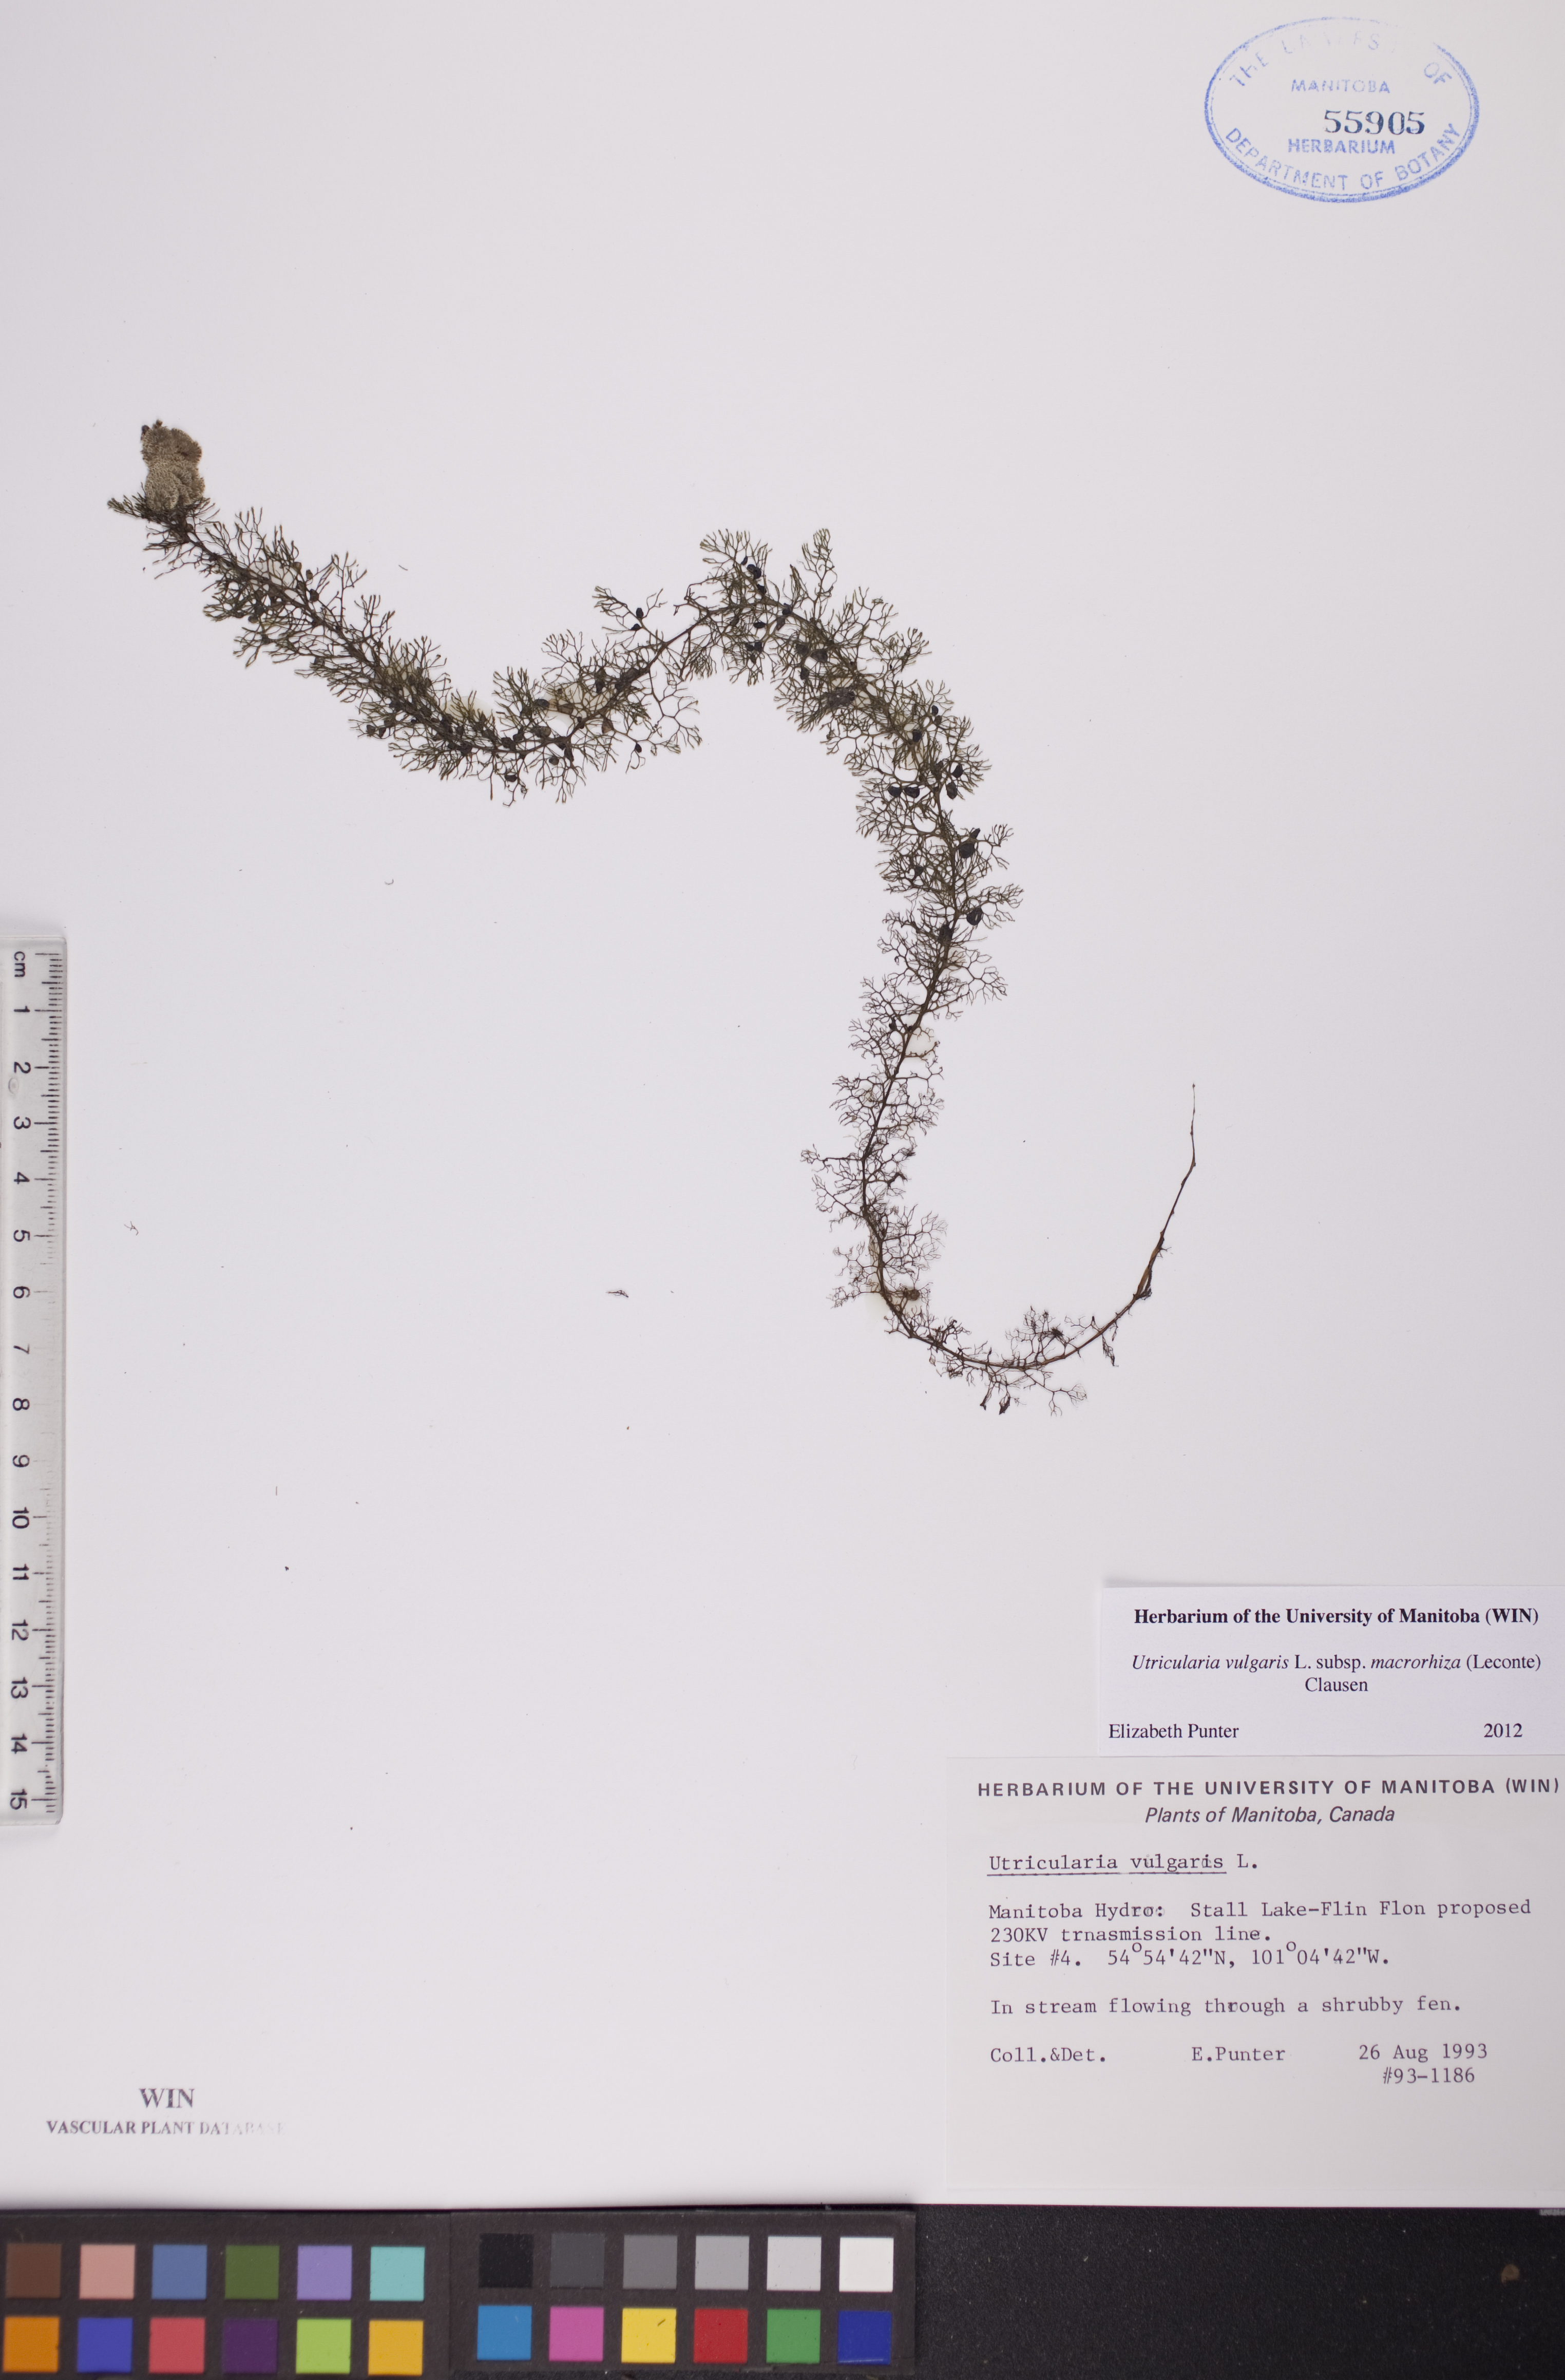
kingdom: Plantae
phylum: Tracheophyta
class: Magnoliopsida
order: Lamiales
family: Lentibulariaceae
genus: Utricularia
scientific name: Utricularia macrorhiza
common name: Common bladderwort
